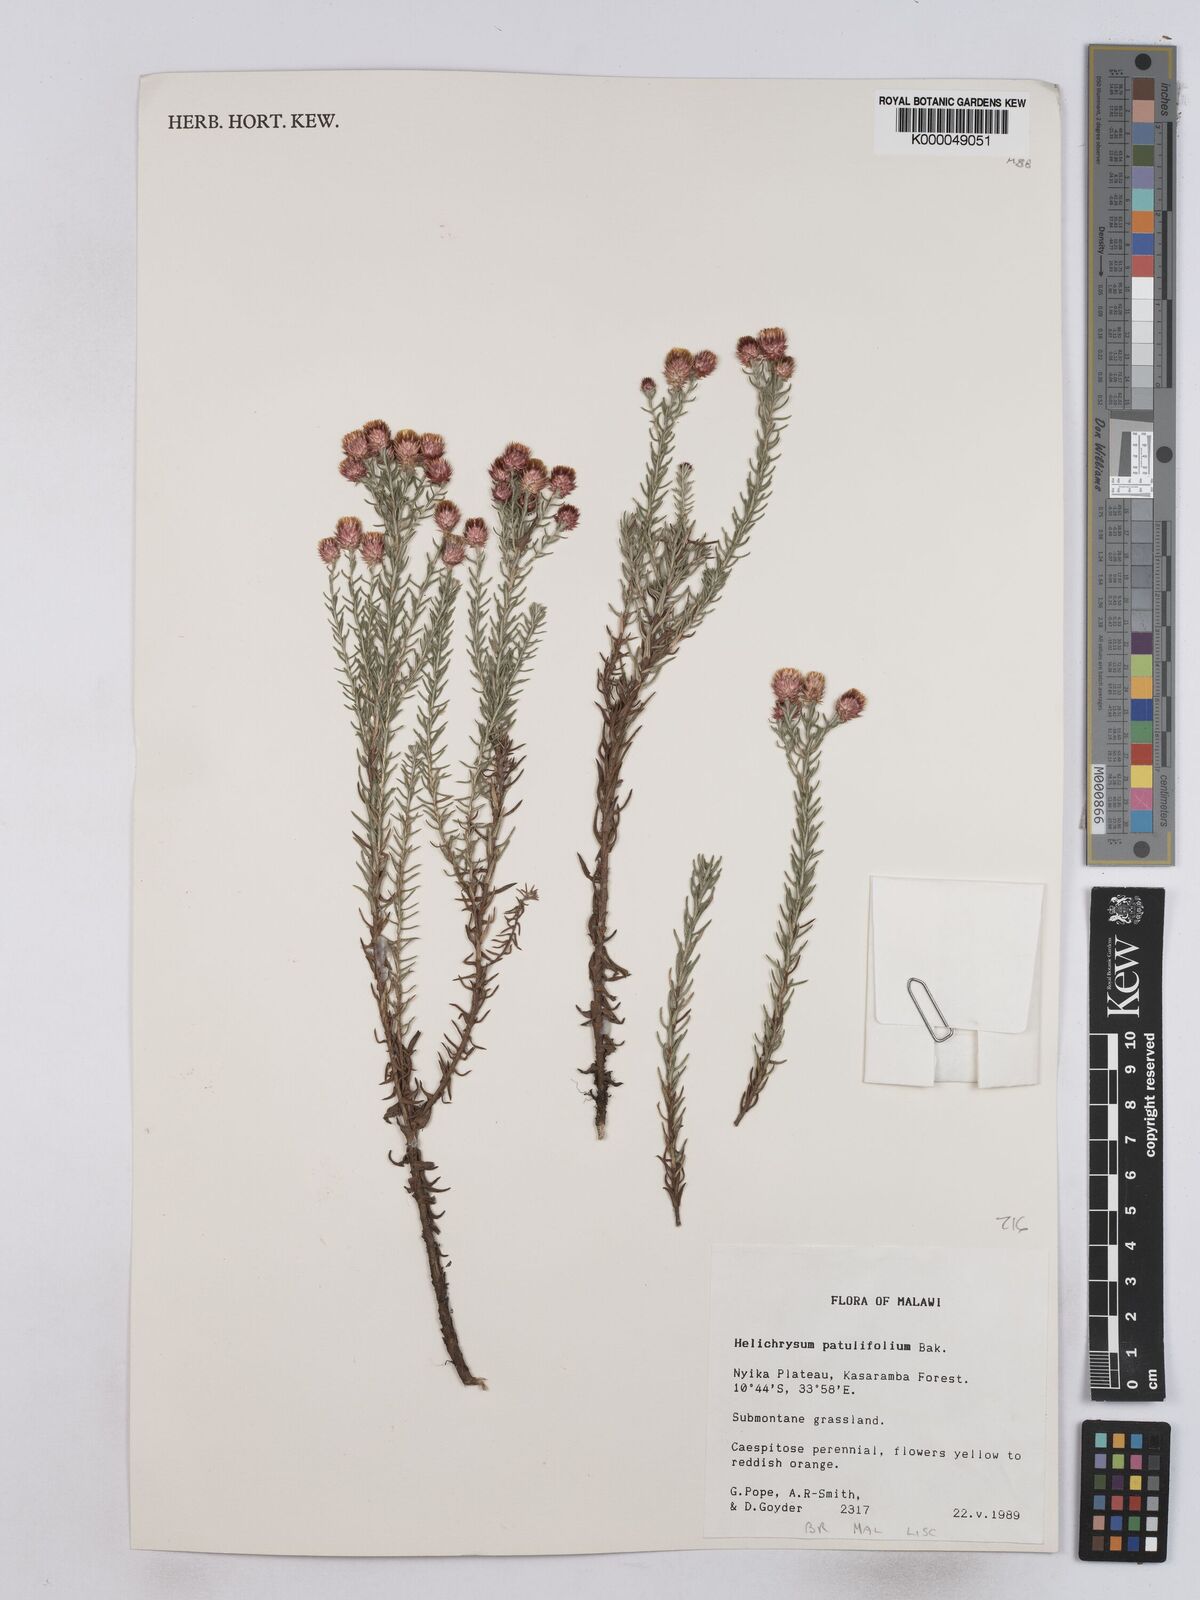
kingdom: Plantae
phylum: Tracheophyta
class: Magnoliopsida
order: Asterales
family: Asteraceae
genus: Helichrysum
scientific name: Helichrysum patulifolium
